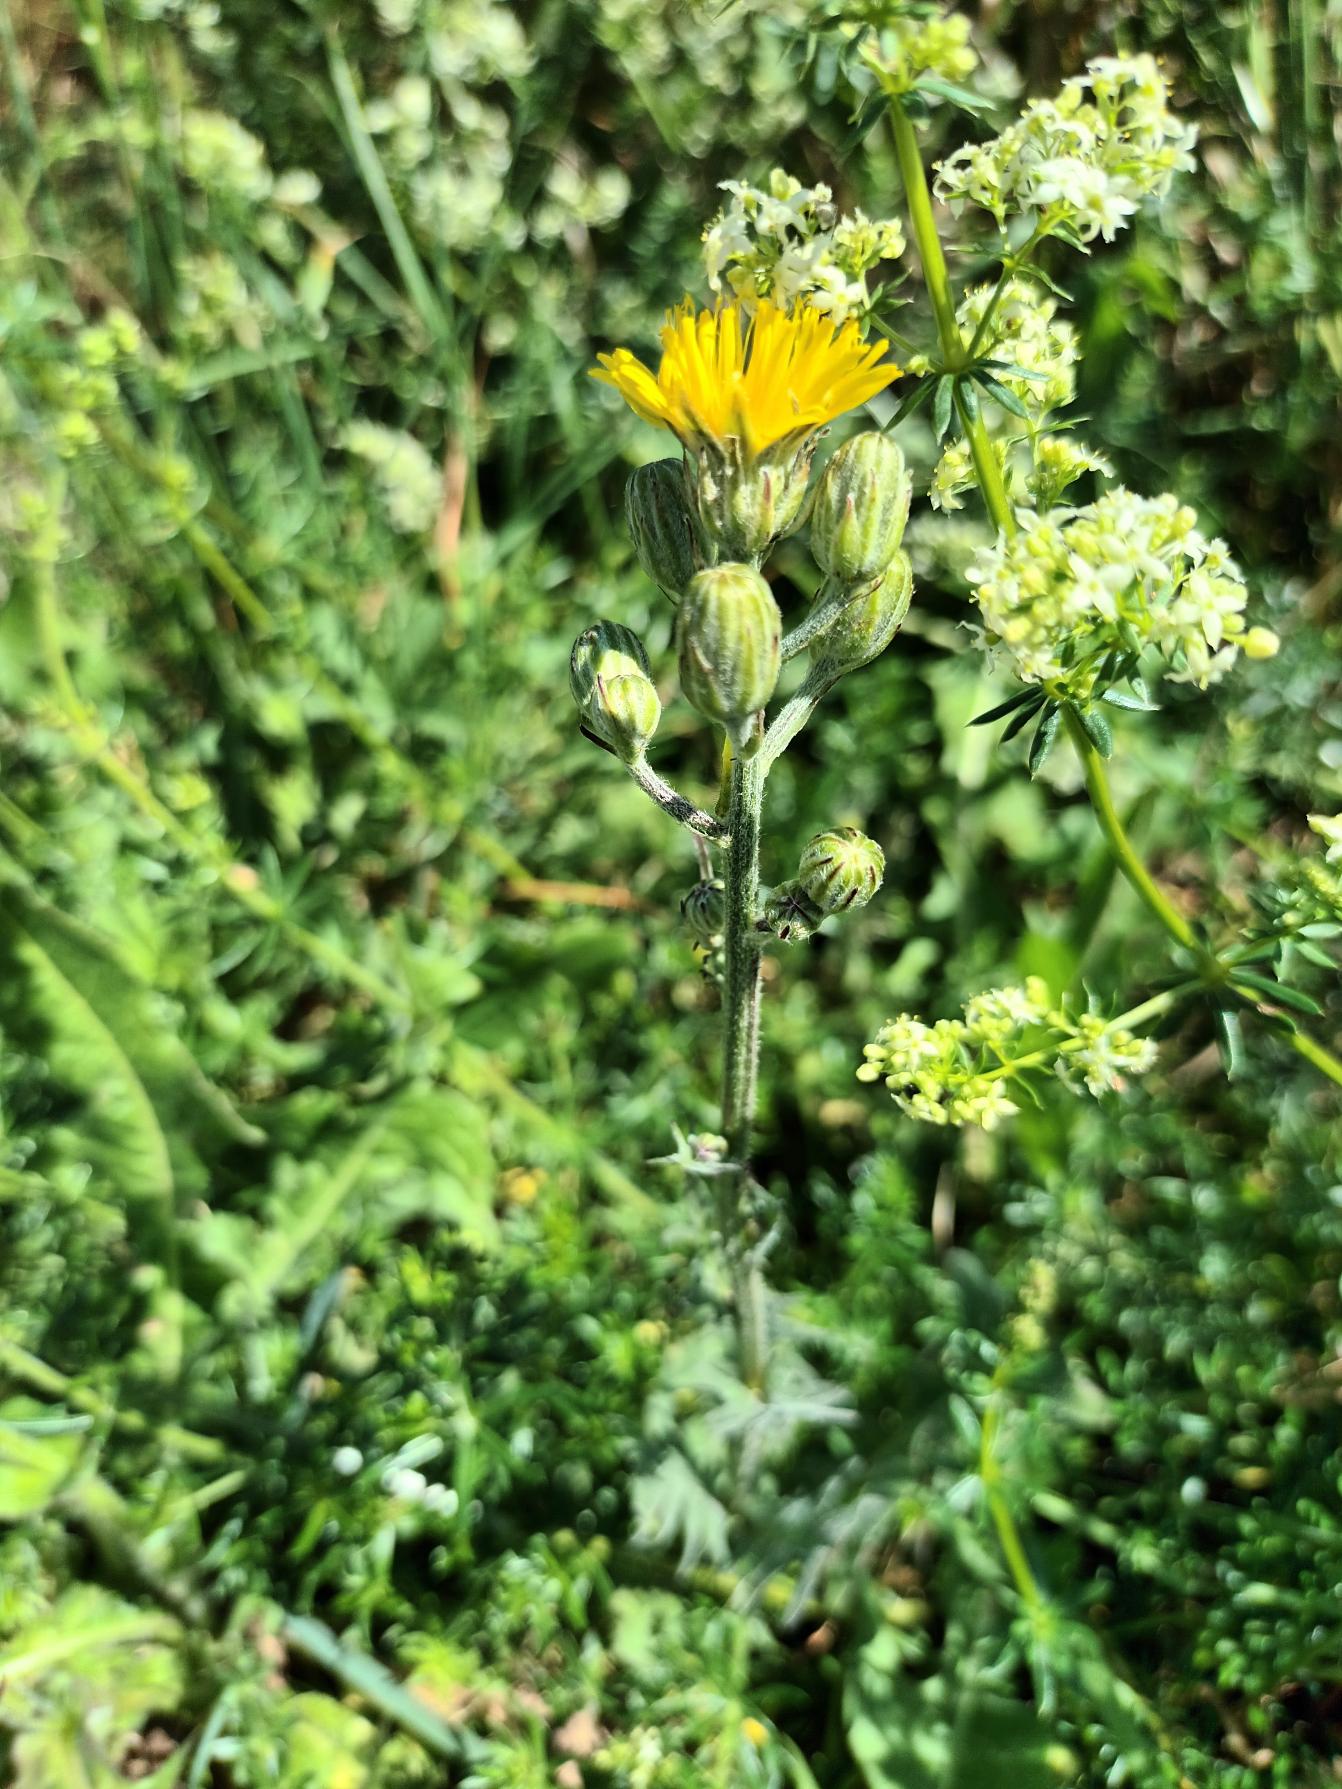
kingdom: Plantae
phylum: Tracheophyta
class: Magnoliopsida
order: Asterales
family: Asteraceae
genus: Crepis
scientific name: Crepis biennis
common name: Toårig høgeskæg
